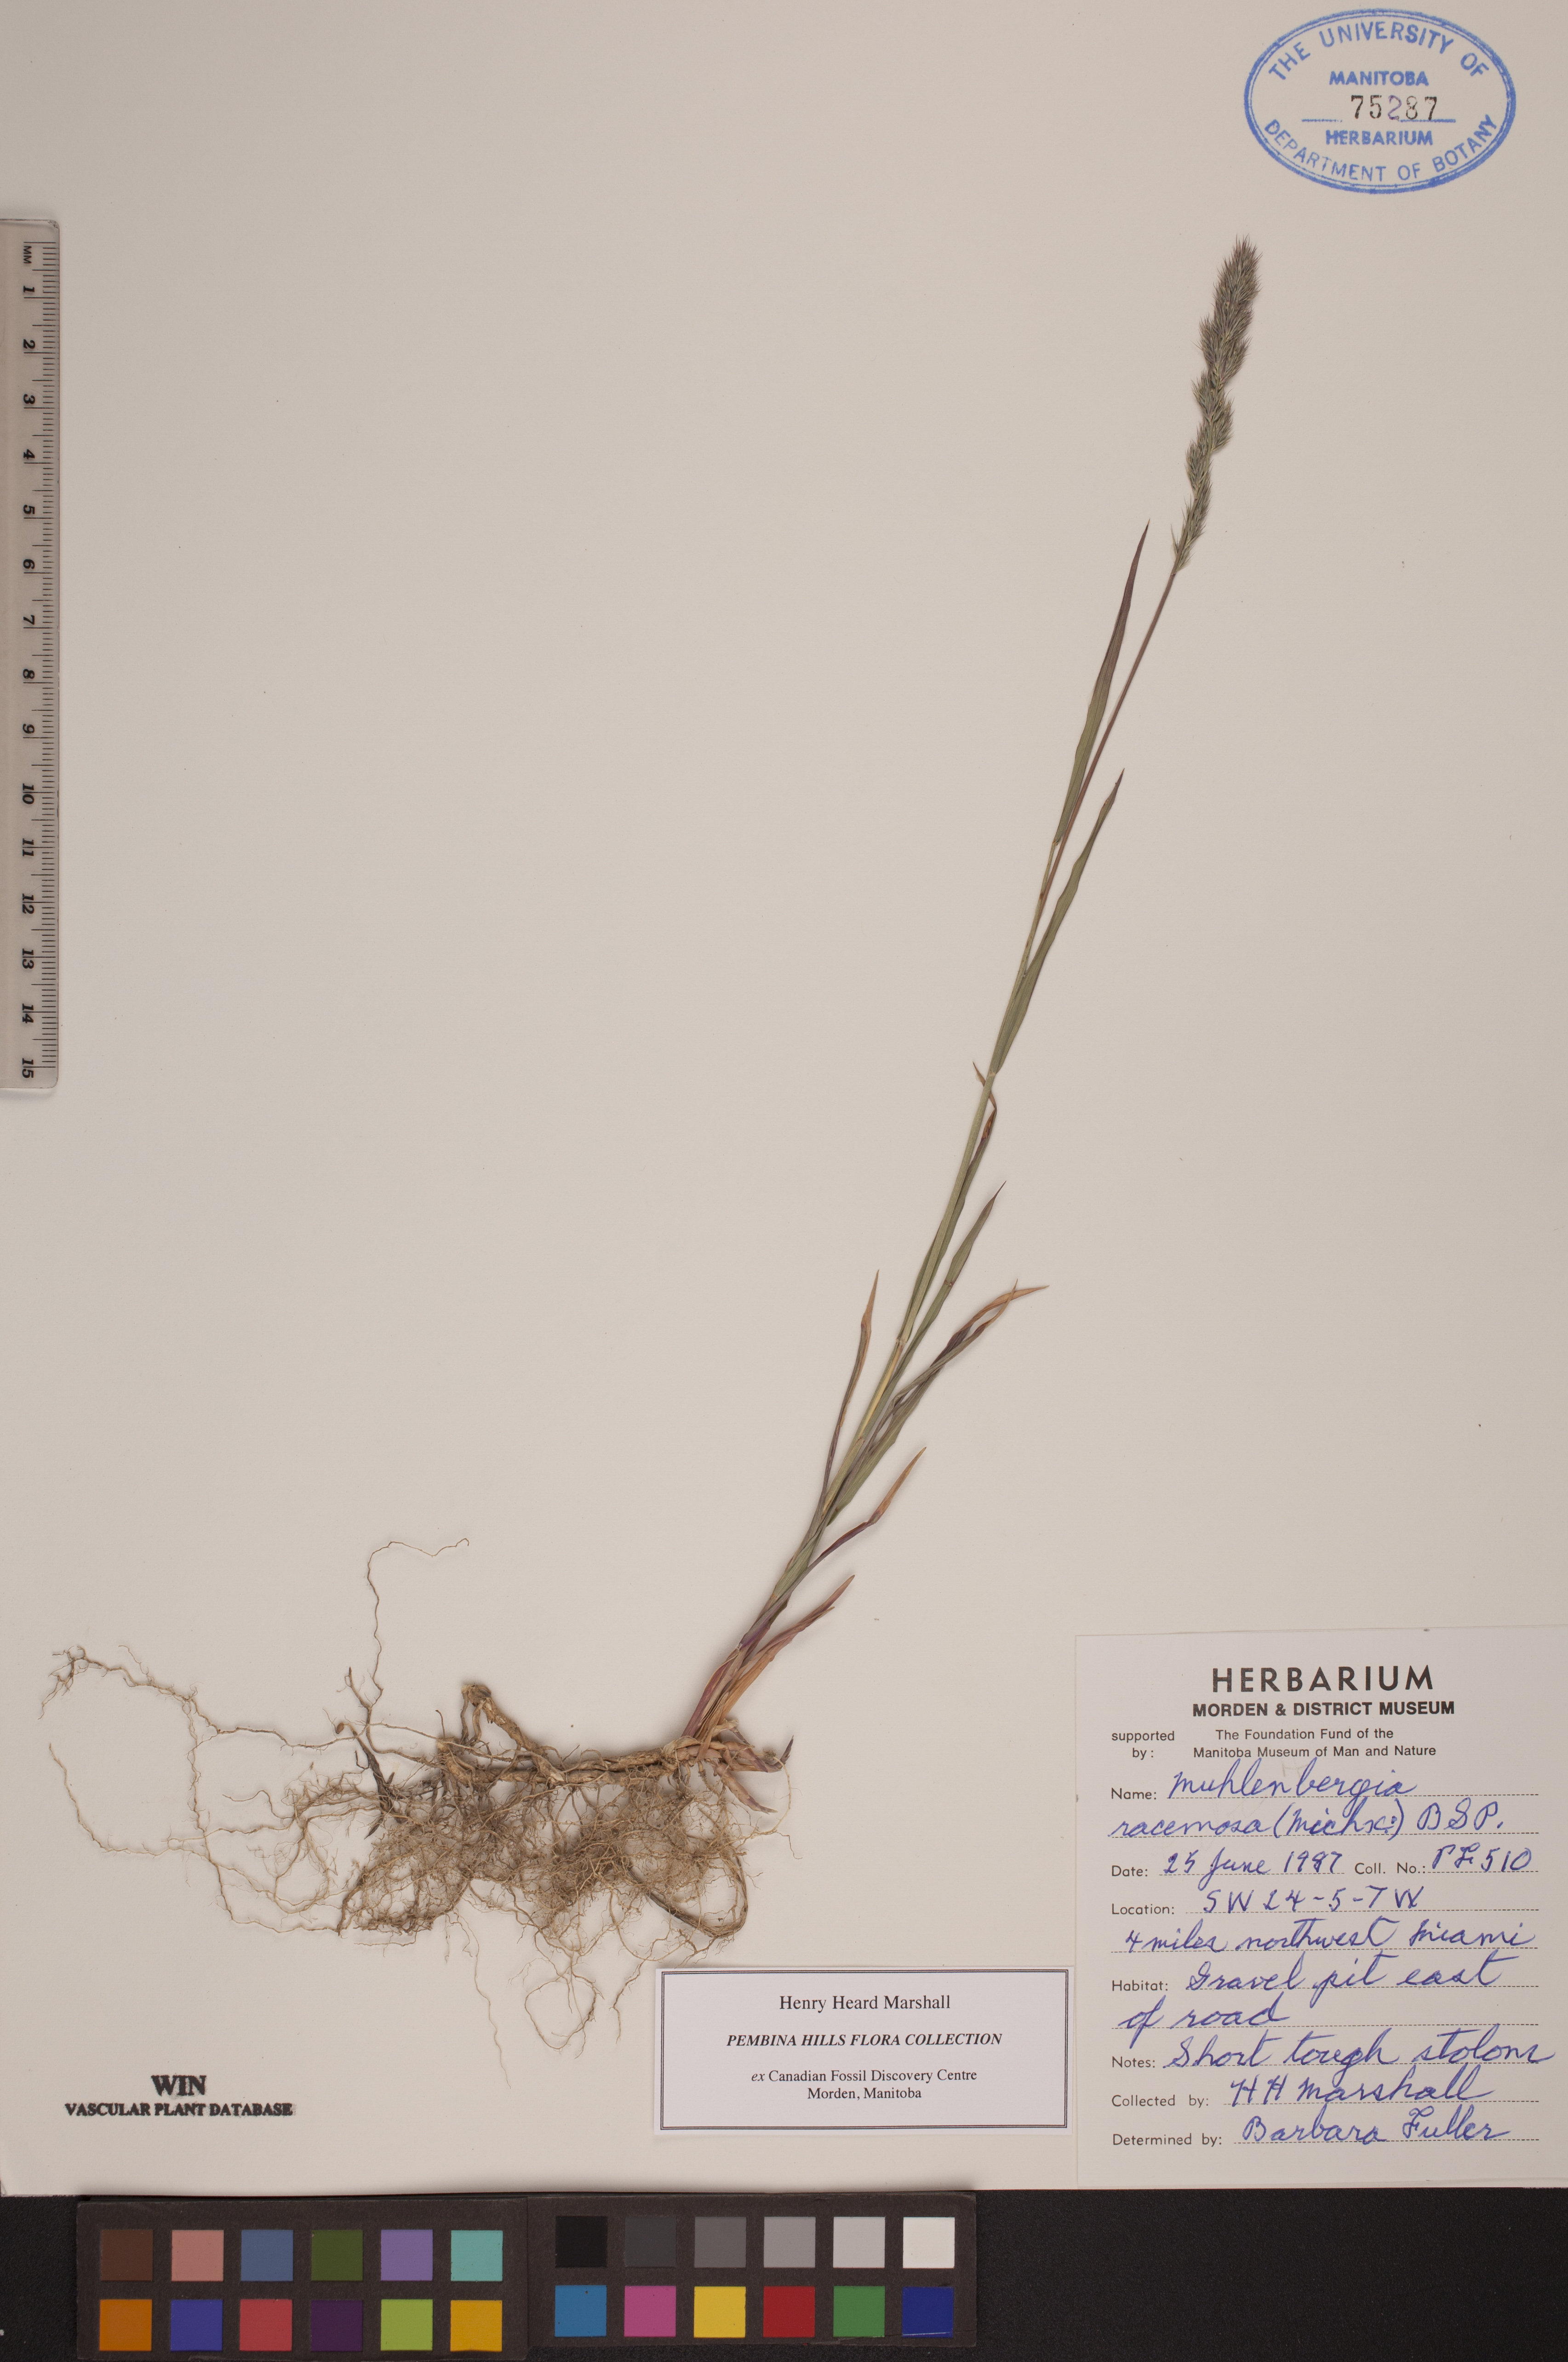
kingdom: Plantae
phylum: Tracheophyta
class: Liliopsida
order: Poales
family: Poaceae
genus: Muhlenbergia
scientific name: Muhlenbergia racemosa
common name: Green muhly
